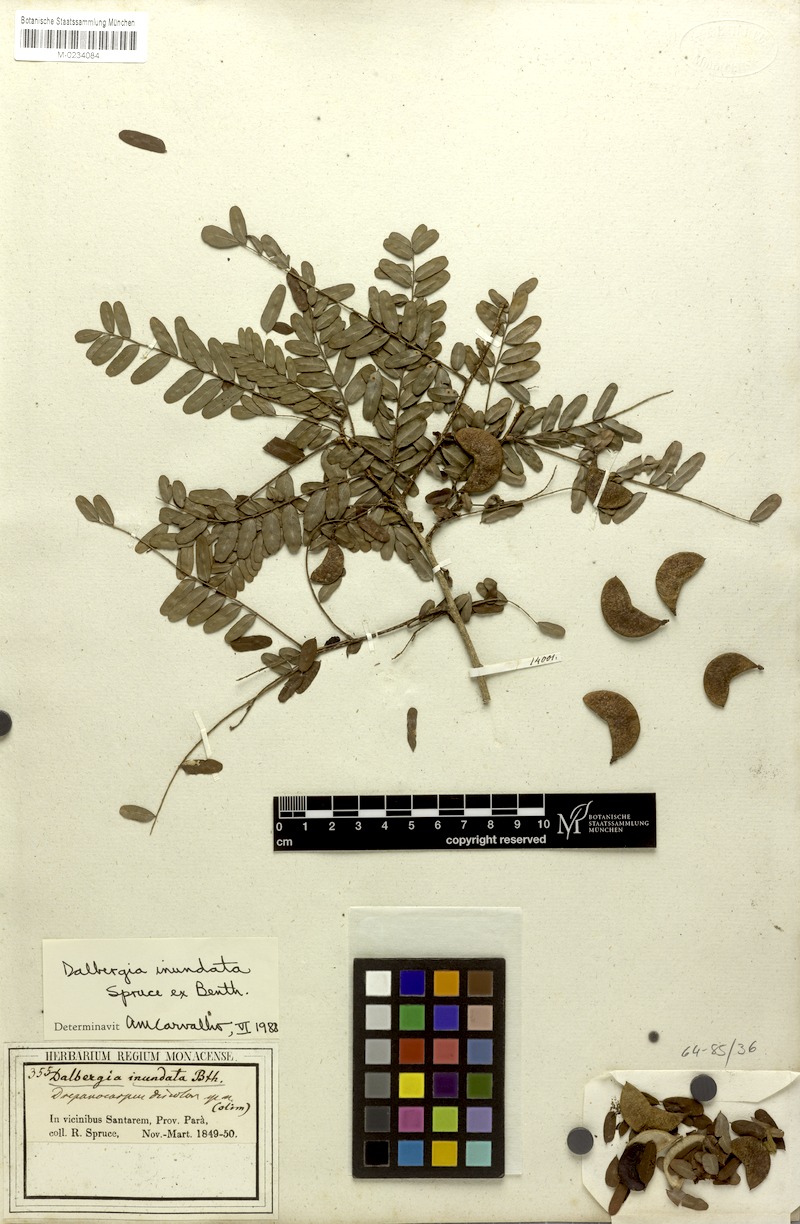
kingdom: Plantae
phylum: Tracheophyta
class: Magnoliopsida
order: Fabales
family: Fabaceae
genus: Dalbergia
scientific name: Dalbergia inundata
